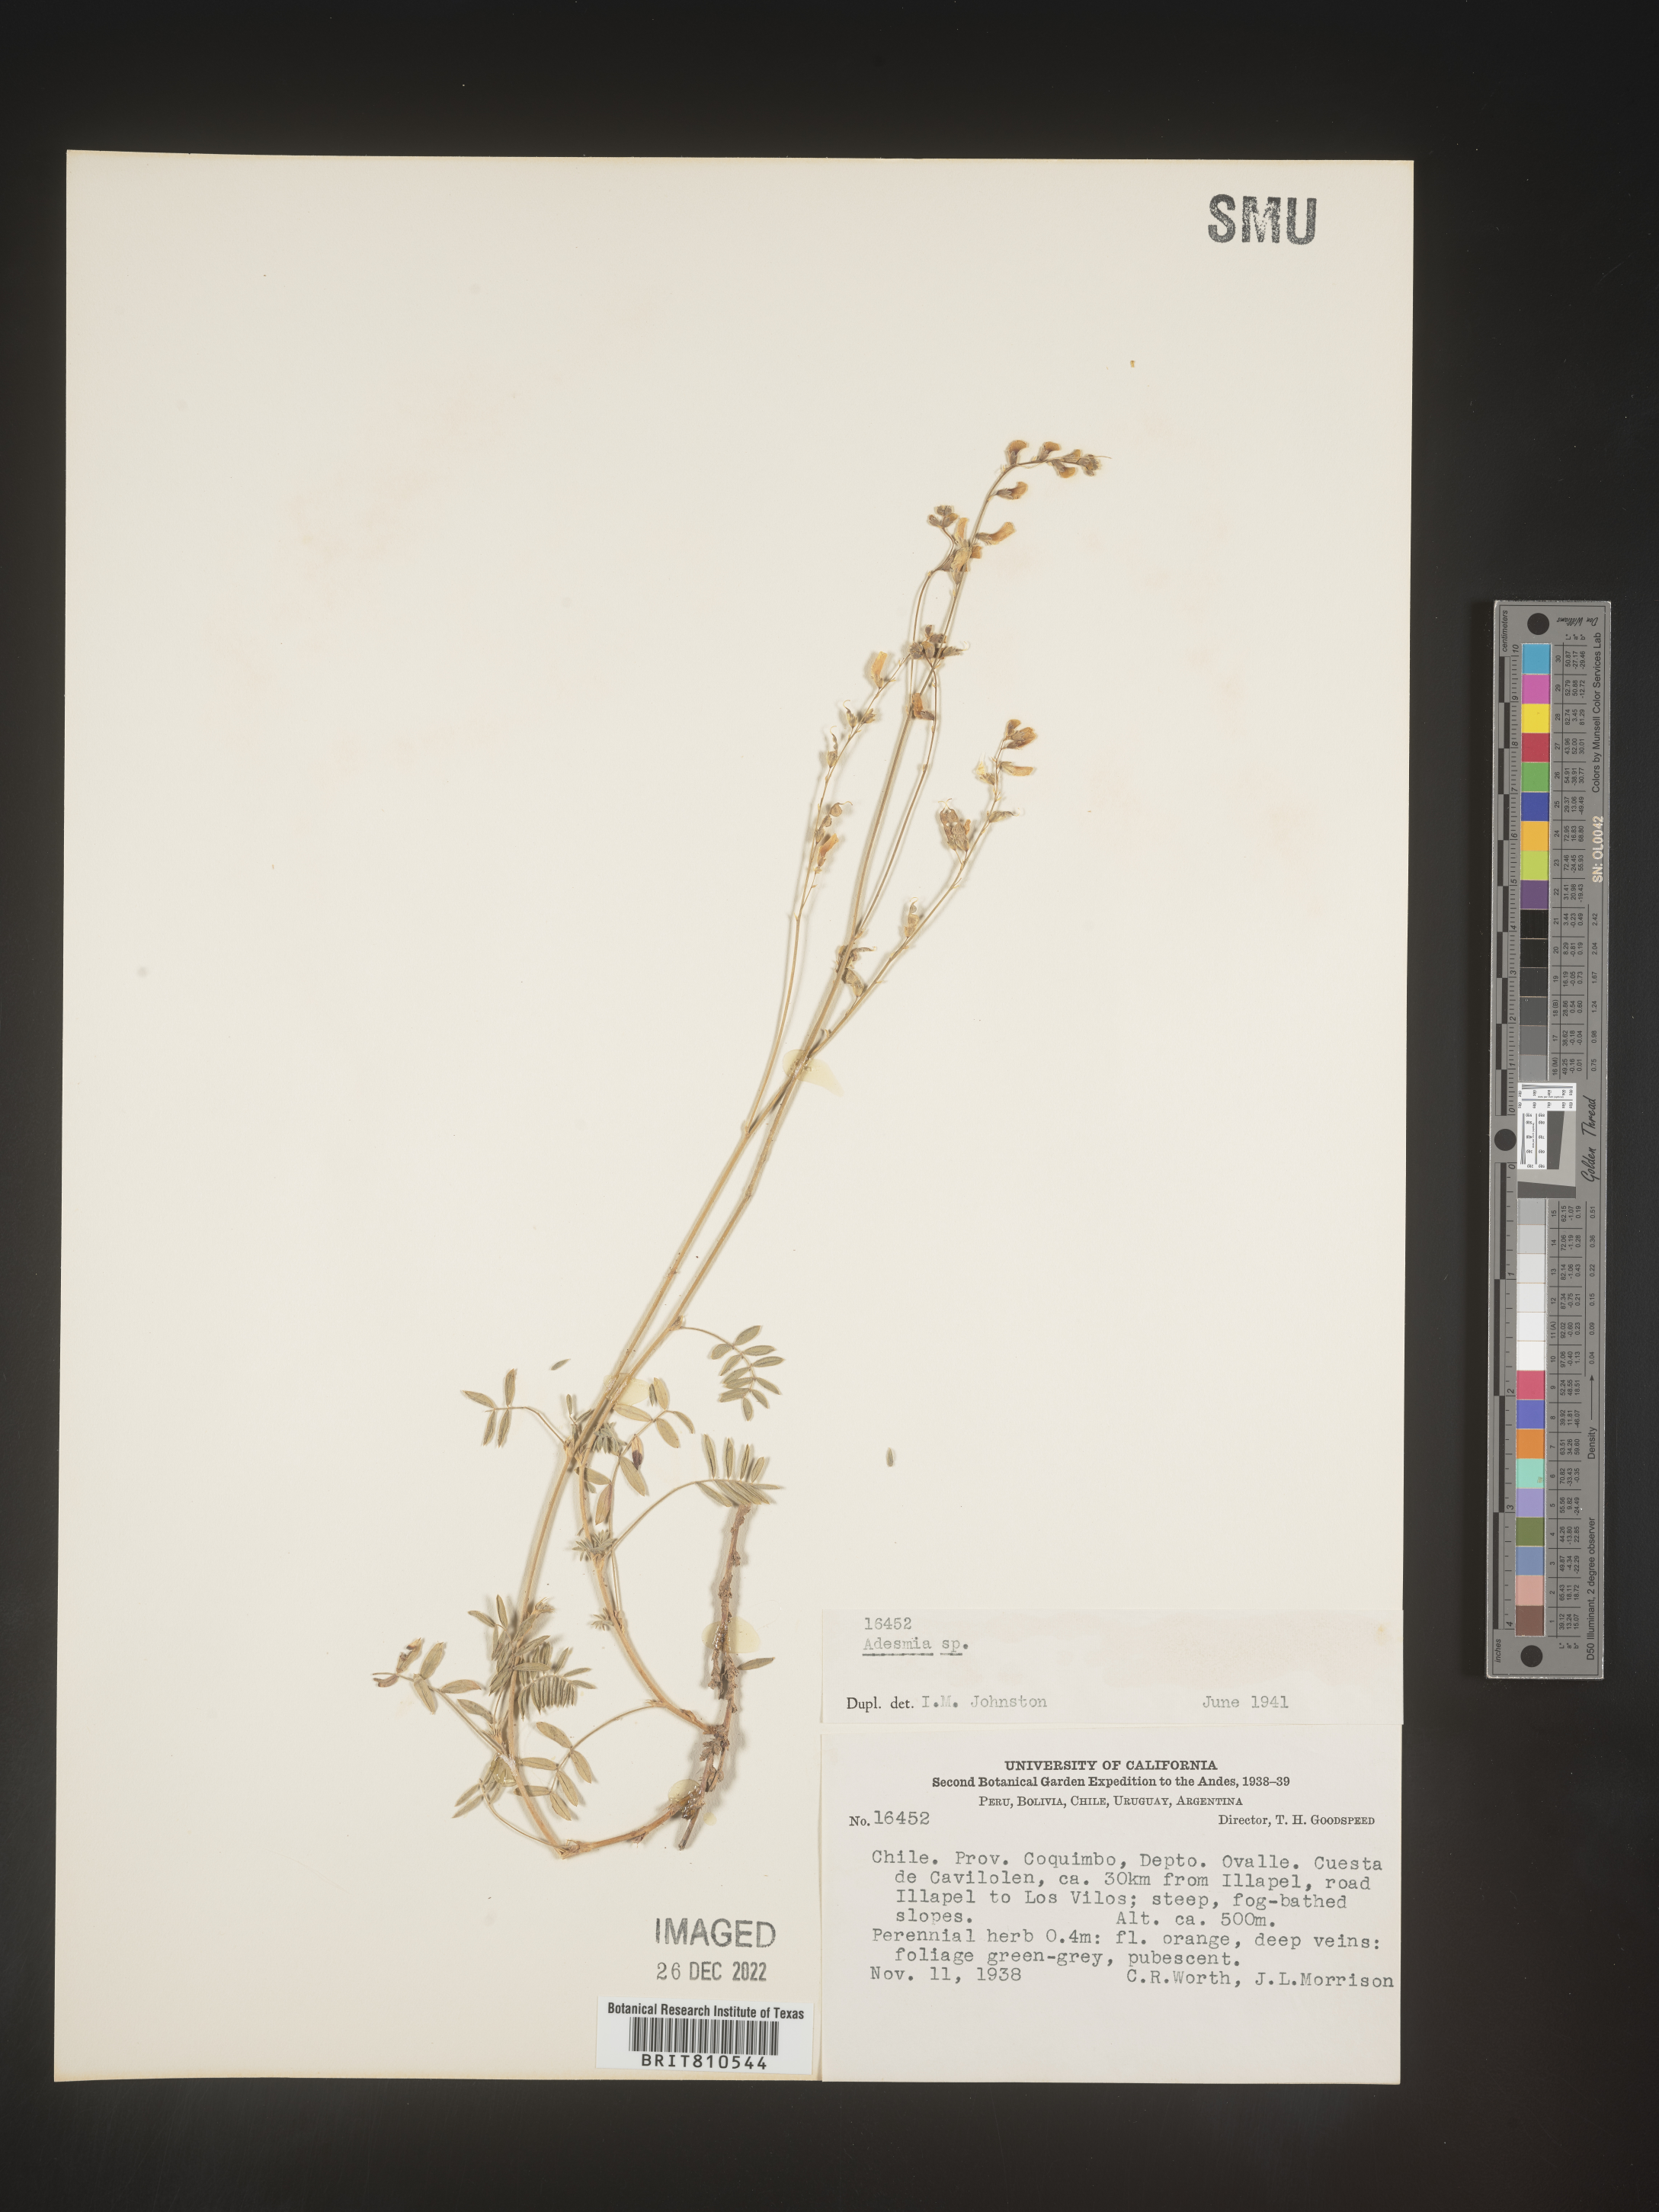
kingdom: Plantae
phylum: Tracheophyta
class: Magnoliopsida
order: Fabales
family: Fabaceae
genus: Adesmia
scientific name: Adesmia
